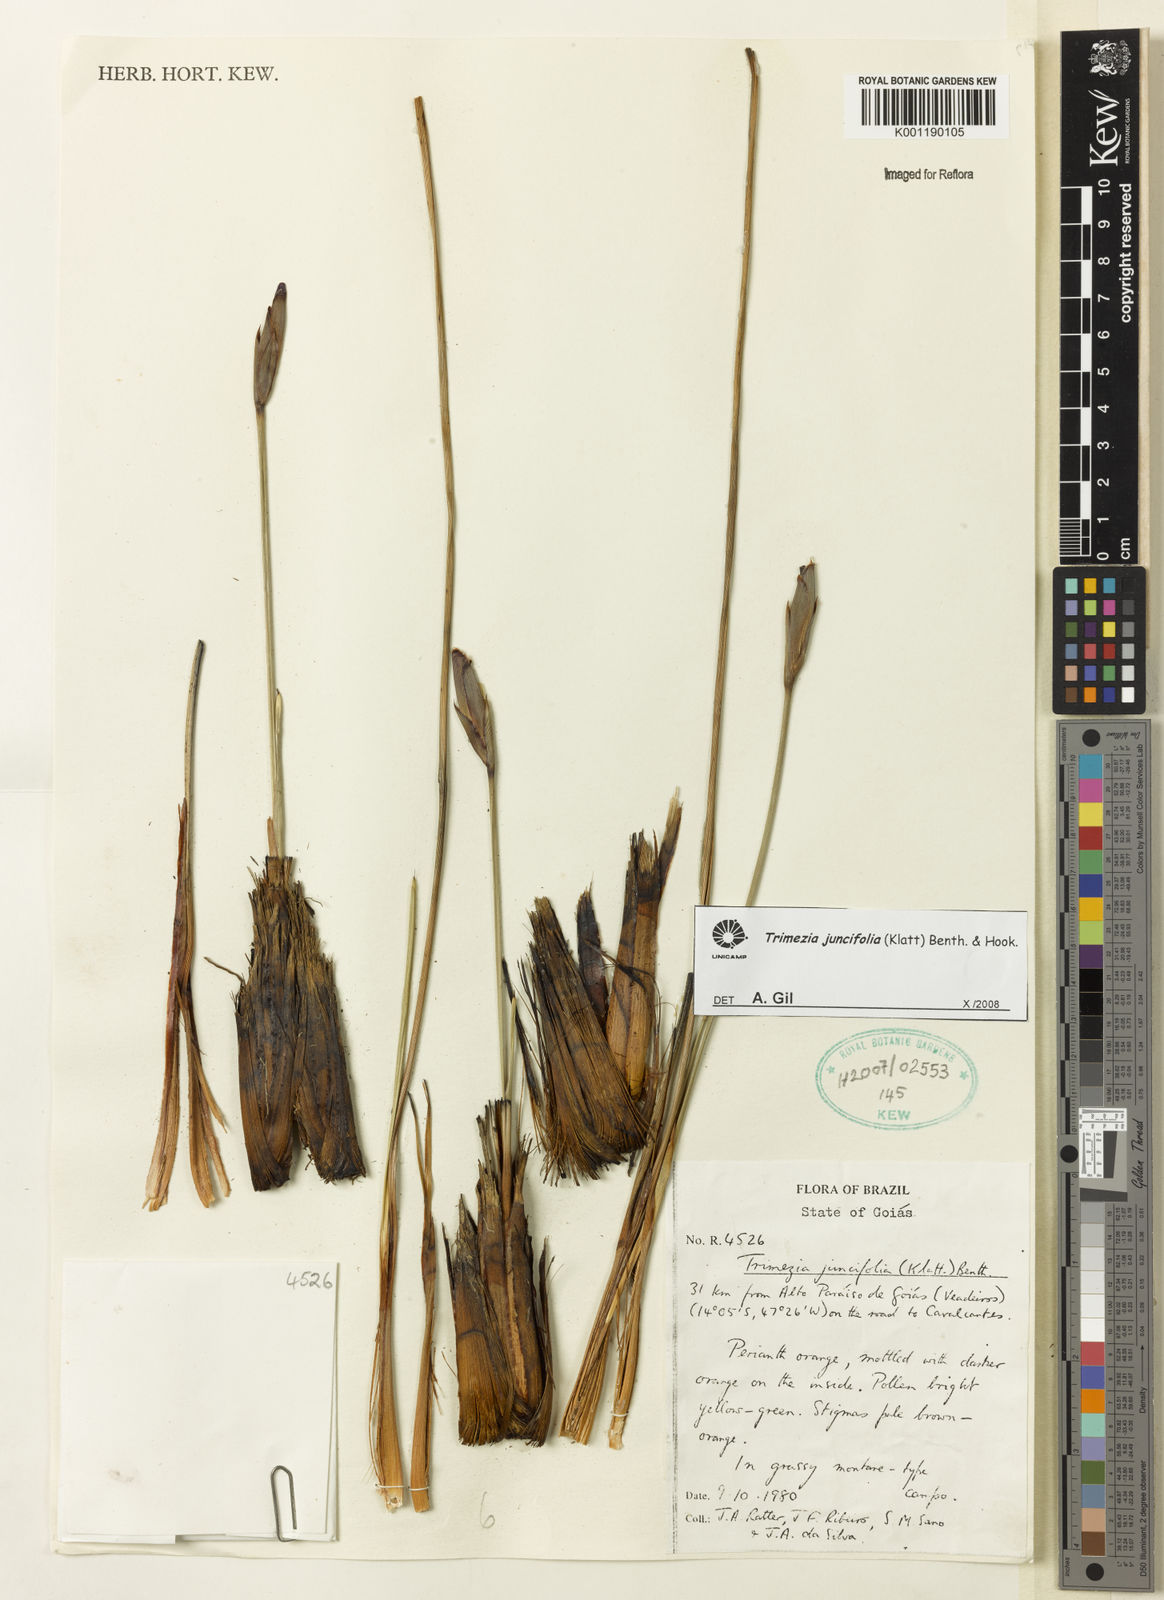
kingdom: Plantae
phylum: Tracheophyta
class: Liliopsida
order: Asparagales
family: Iridaceae
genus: Trimezia
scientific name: Trimezia juncifolia
